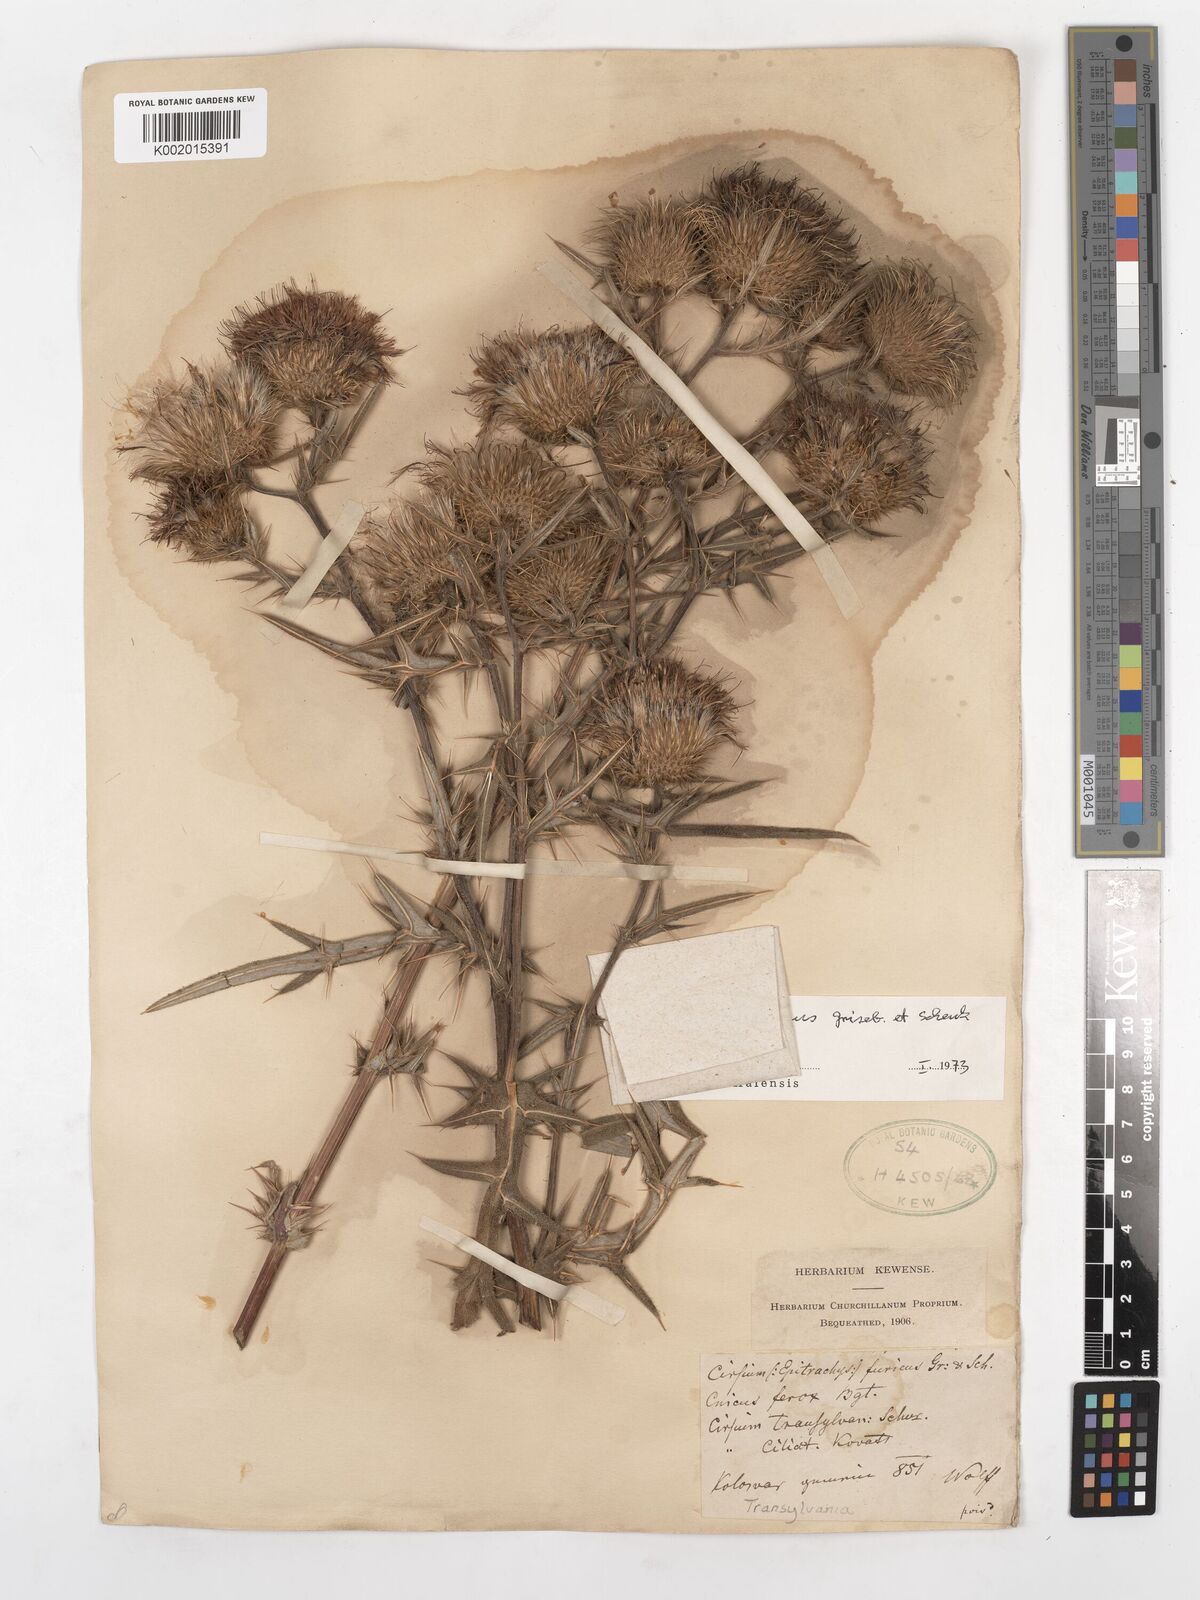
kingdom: Plantae
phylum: Tracheophyta
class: Magnoliopsida
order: Asterales
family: Asteraceae
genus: Lophiolepis
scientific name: Lophiolepis furiens
